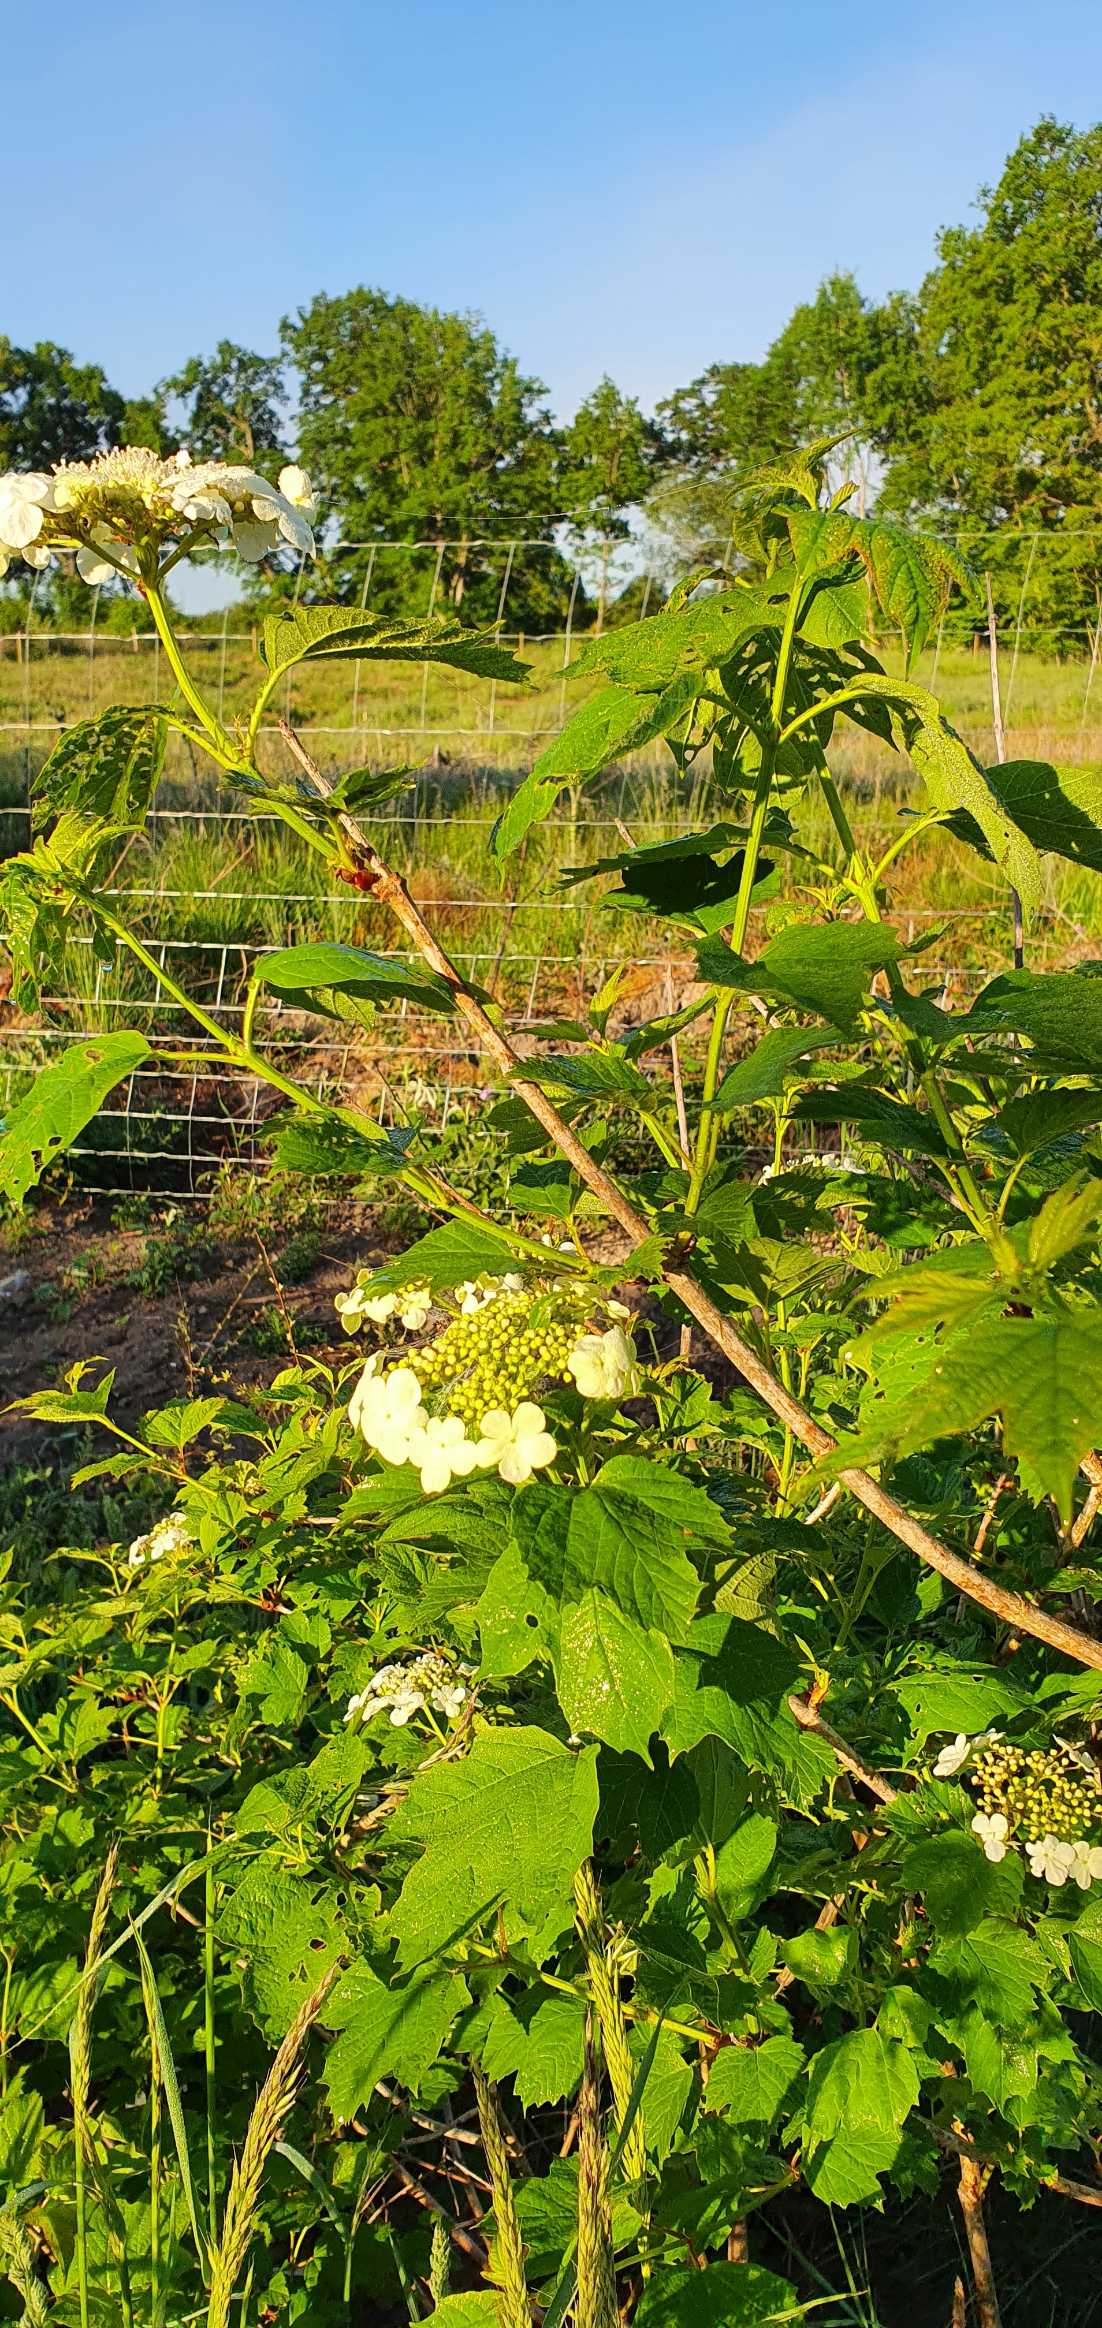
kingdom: Plantae
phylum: Tracheophyta
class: Magnoliopsida
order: Dipsacales
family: Viburnaceae
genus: Viburnum
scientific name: Viburnum opulus
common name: Kvalkved
